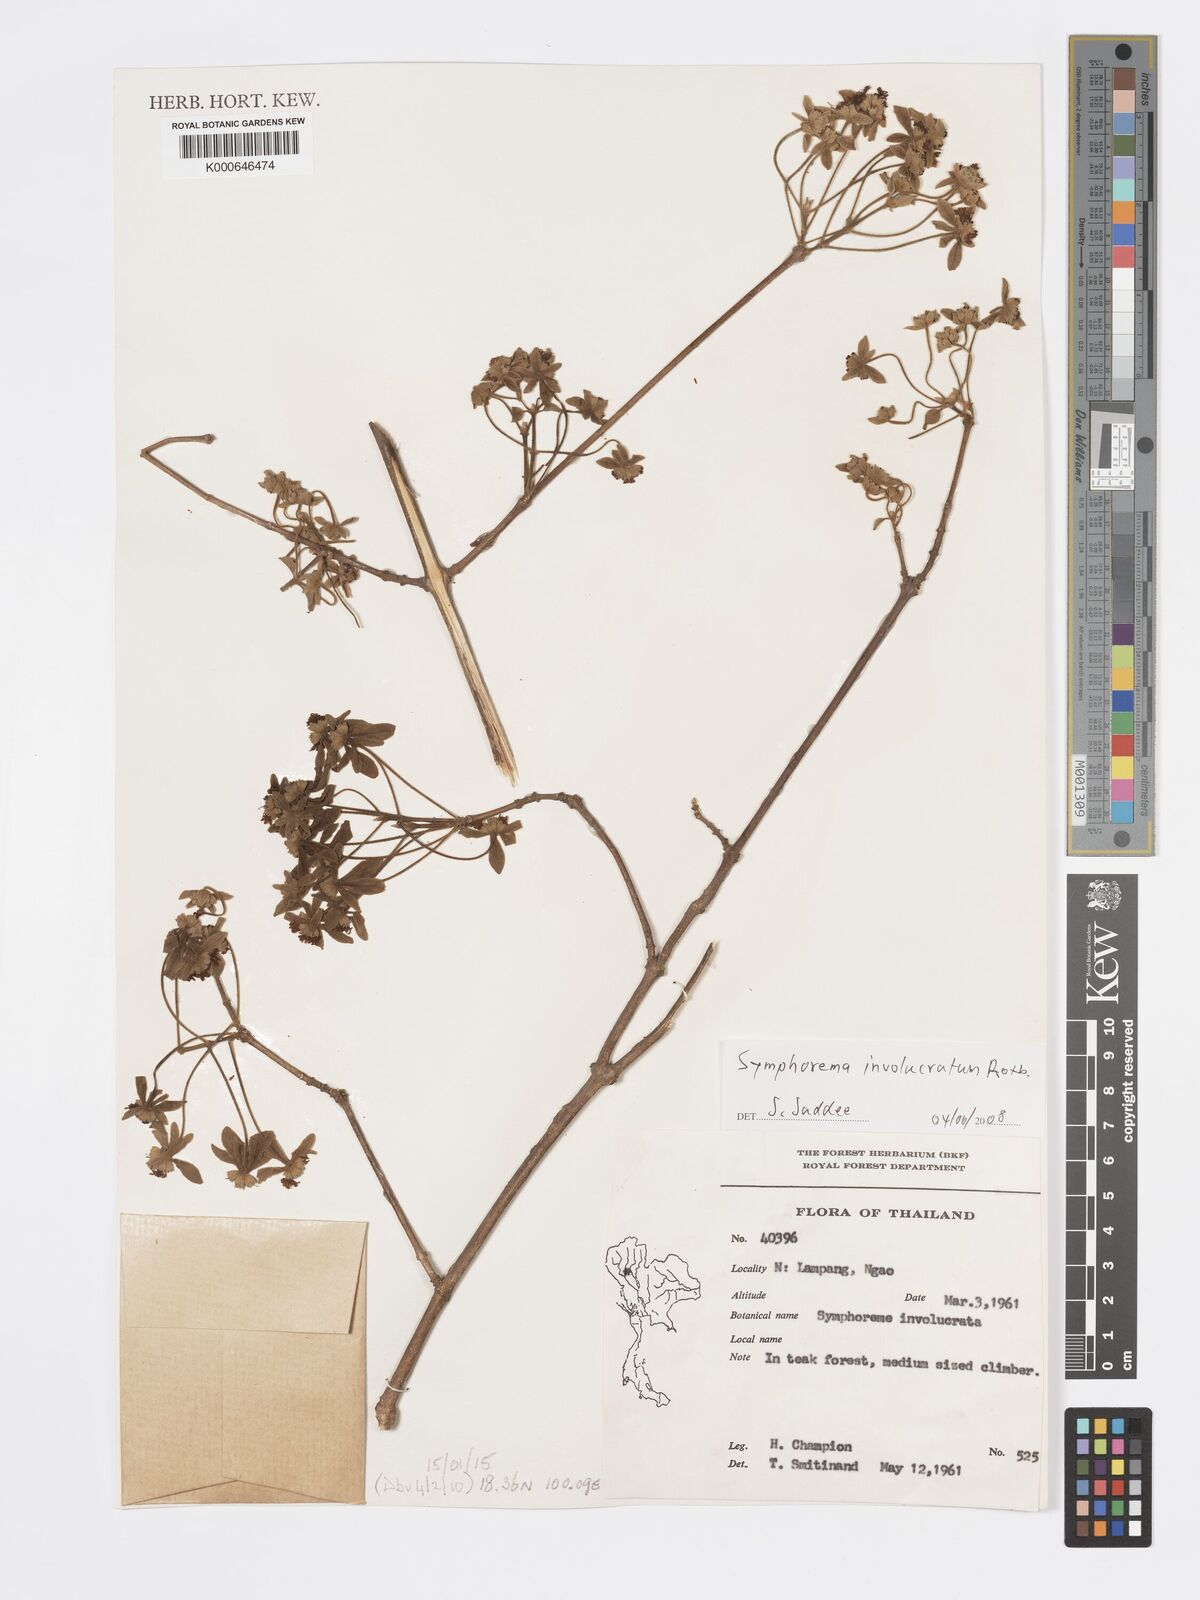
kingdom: Plantae
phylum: Tracheophyta
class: Magnoliopsida
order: Lamiales
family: Lamiaceae
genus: Symphorema
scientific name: Symphorema involucratum
